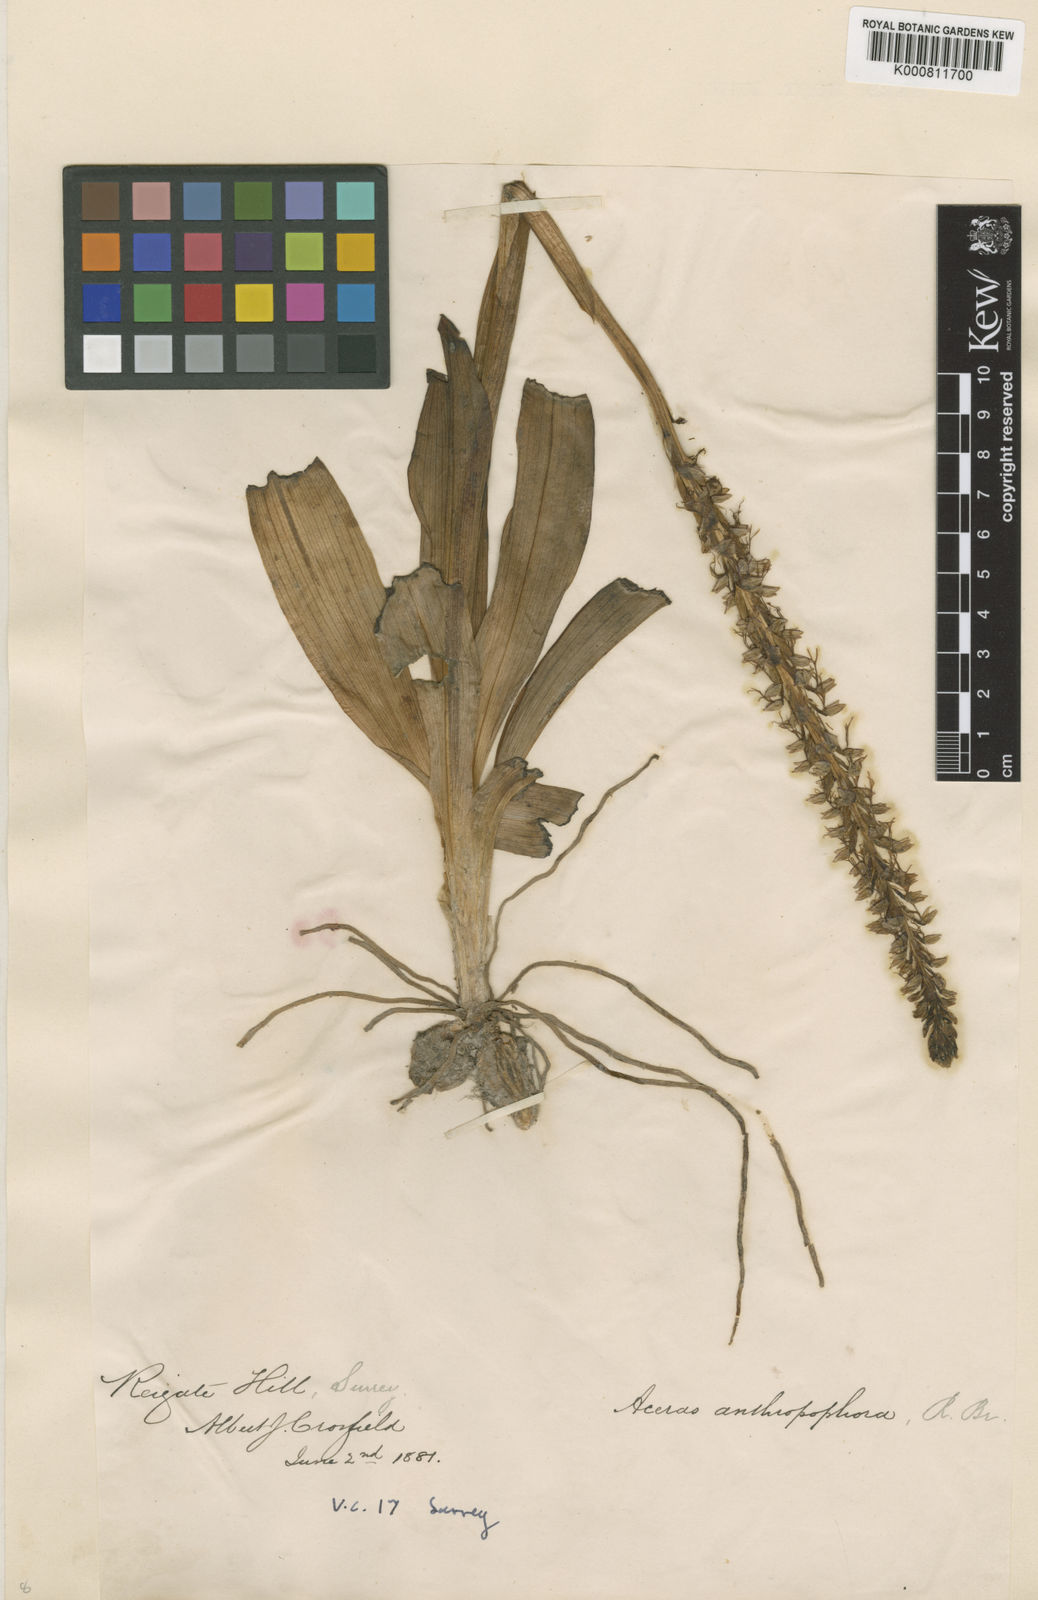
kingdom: Plantae
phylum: Tracheophyta
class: Liliopsida
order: Asparagales
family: Orchidaceae
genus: Orchis
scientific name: Orchis
